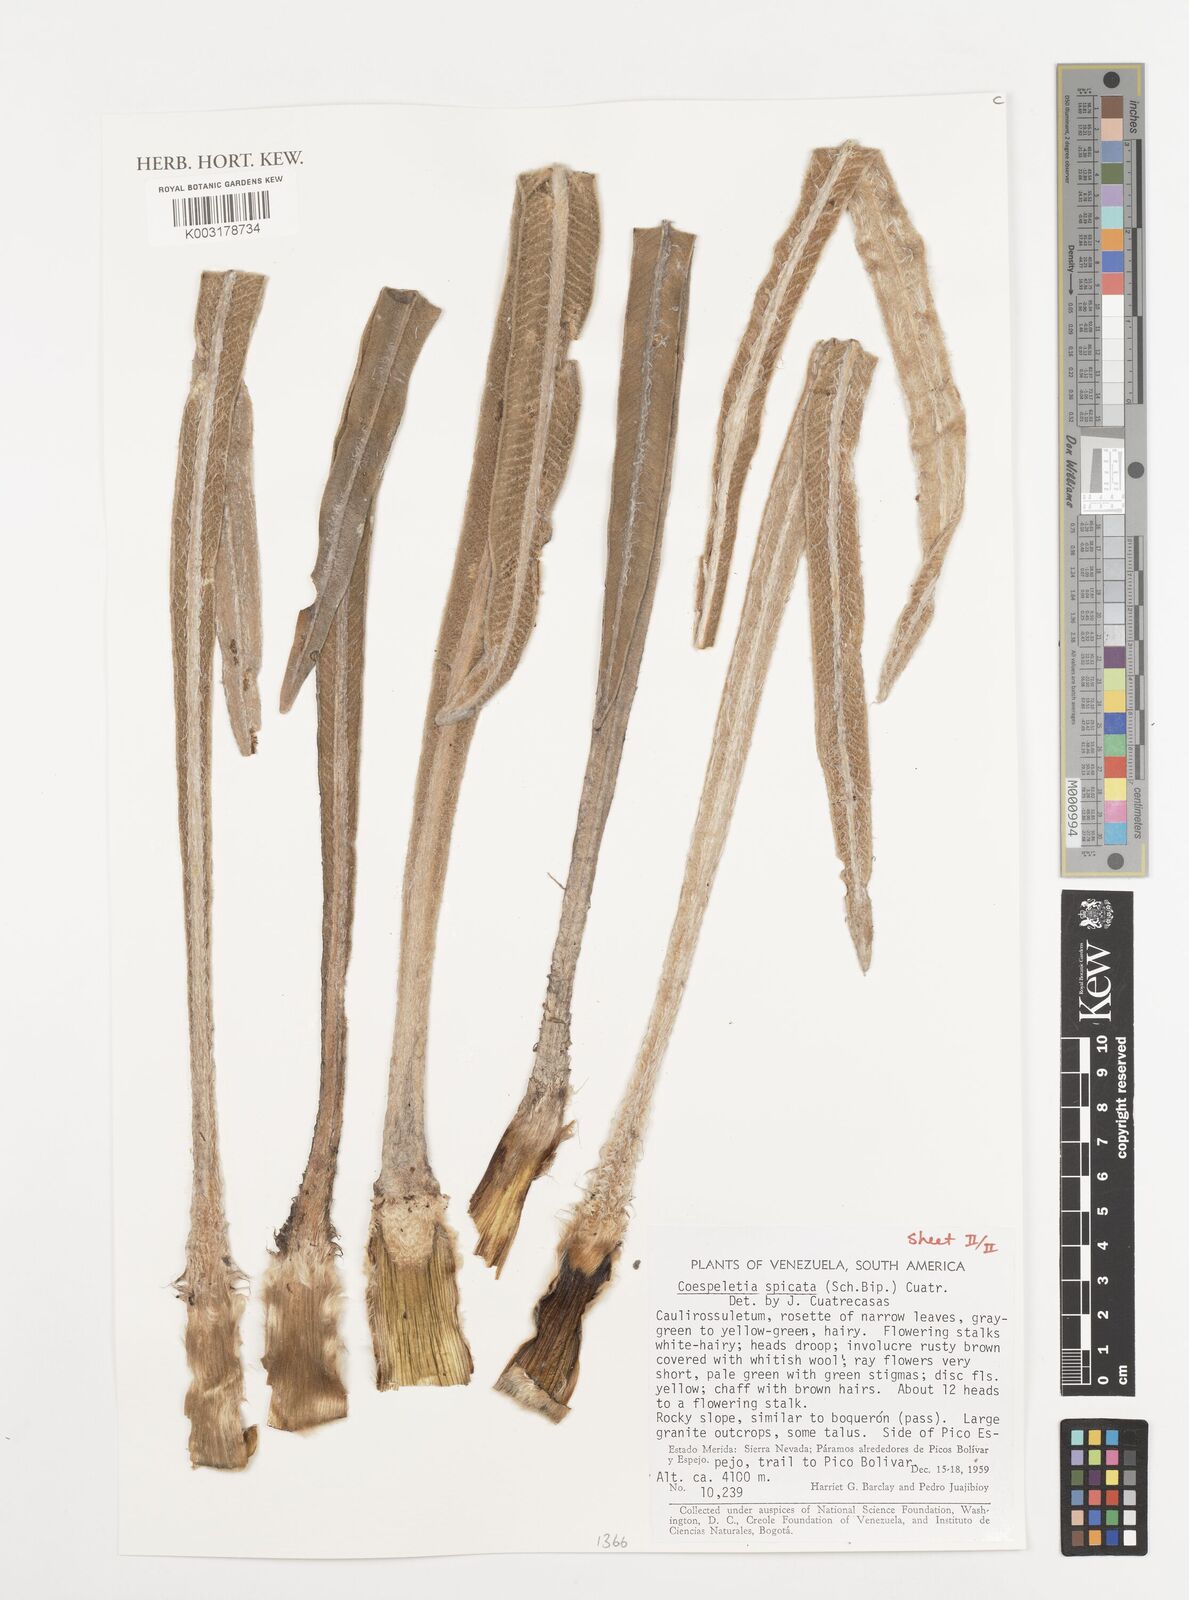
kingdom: Plantae
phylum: Tracheophyta
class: Magnoliopsida
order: Asterales
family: Asteraceae
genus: Espeletia
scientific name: Espeletia spicata
